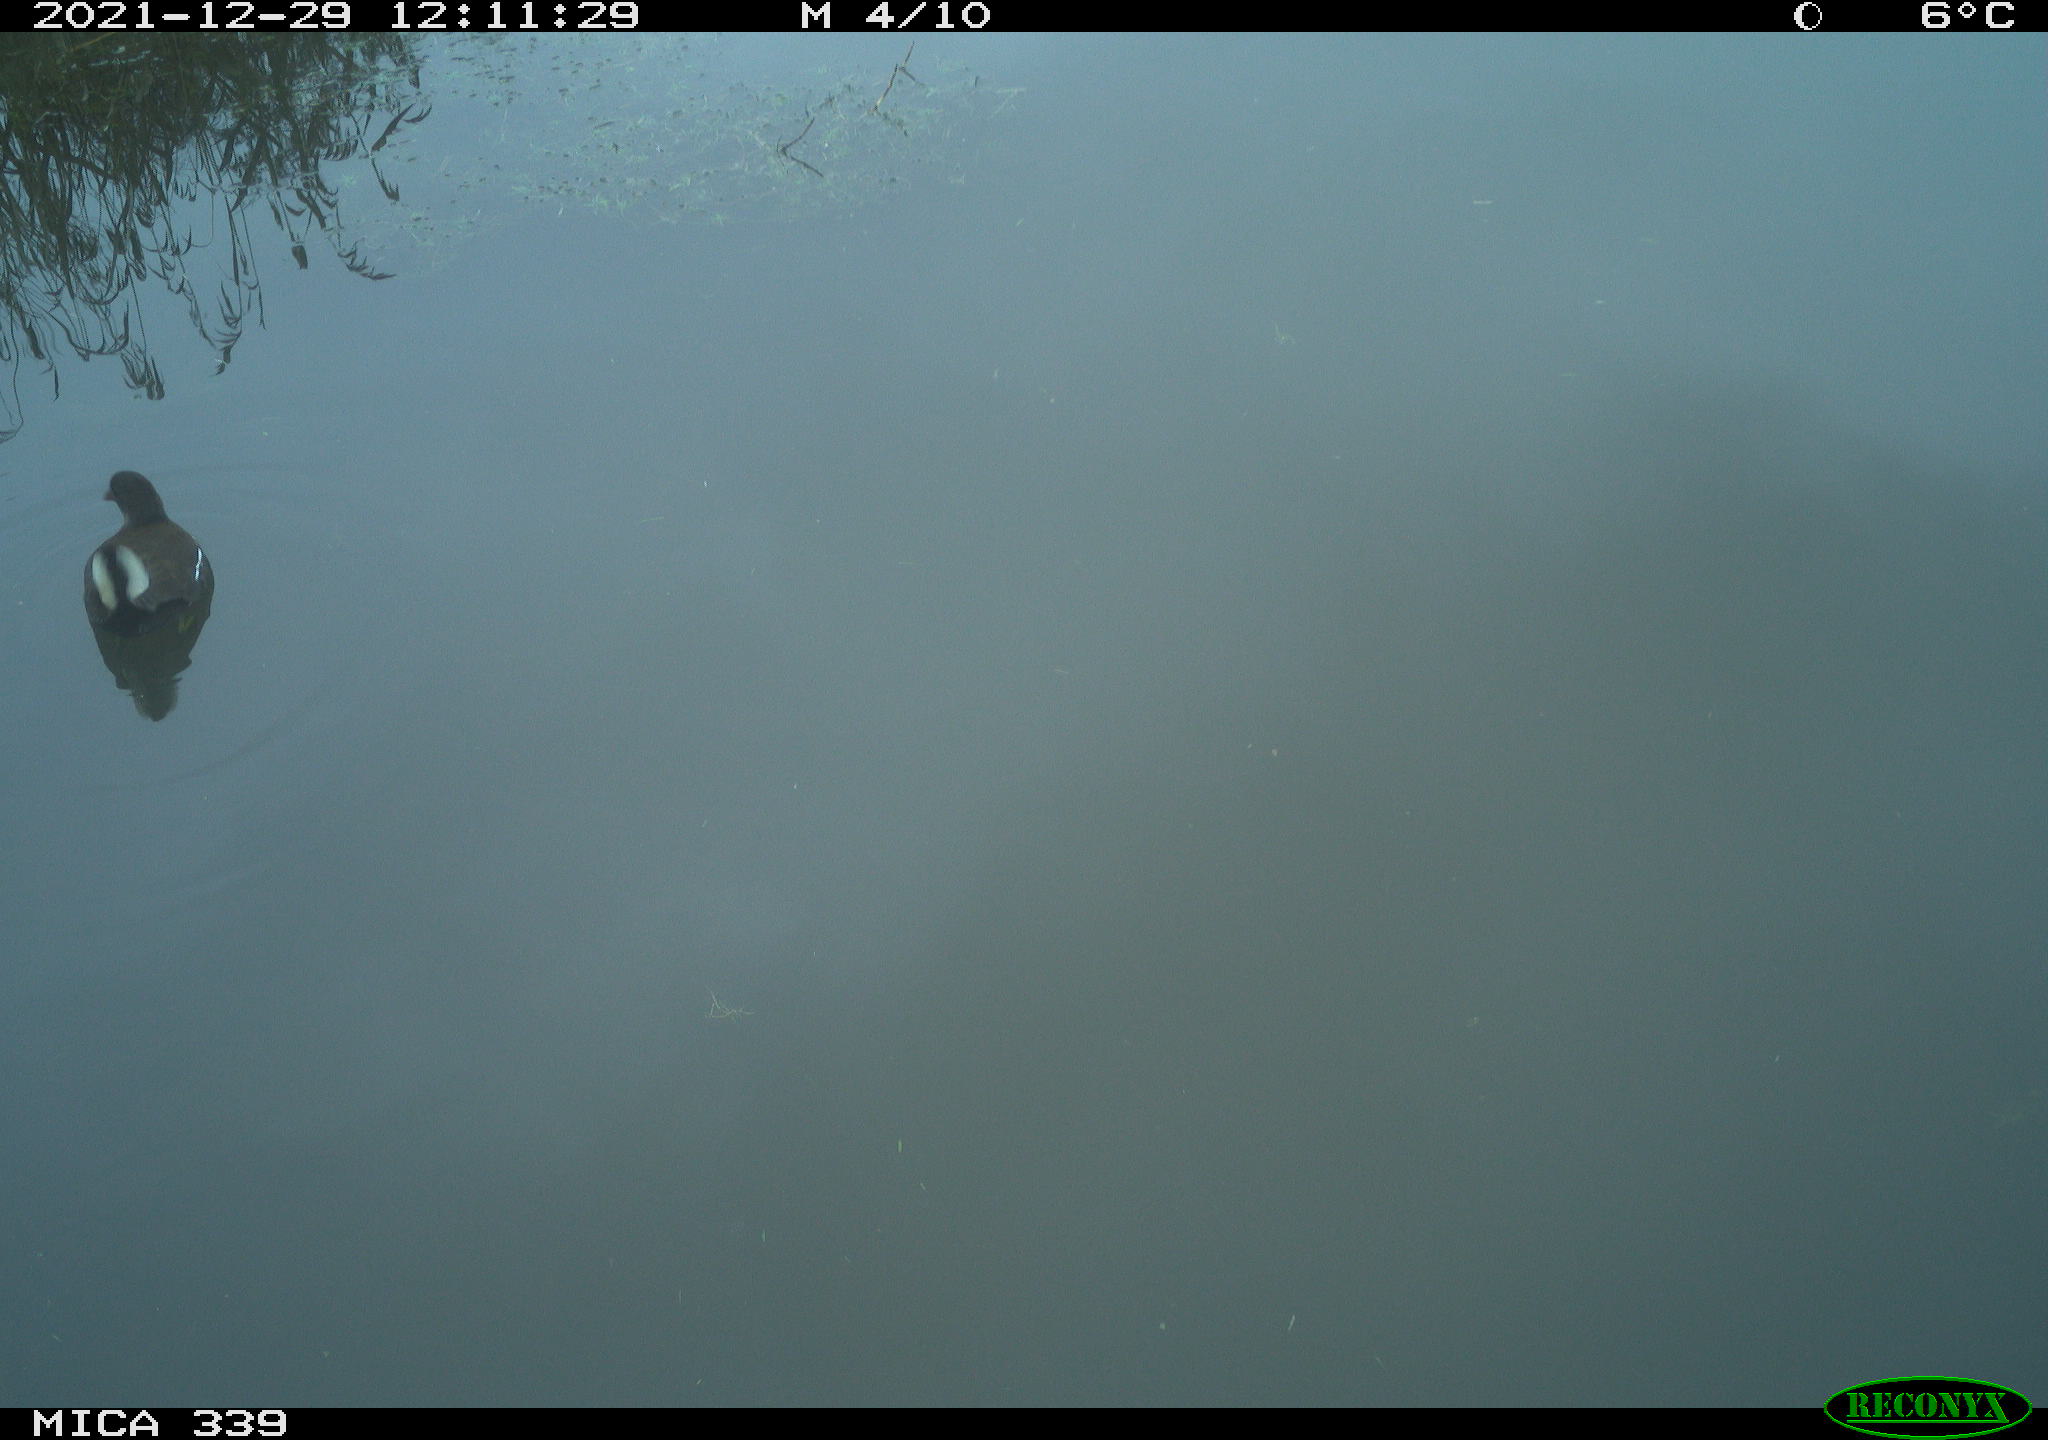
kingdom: Animalia
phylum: Chordata
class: Aves
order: Gruiformes
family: Rallidae
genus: Gallinula
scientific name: Gallinula chloropus
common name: Common moorhen
